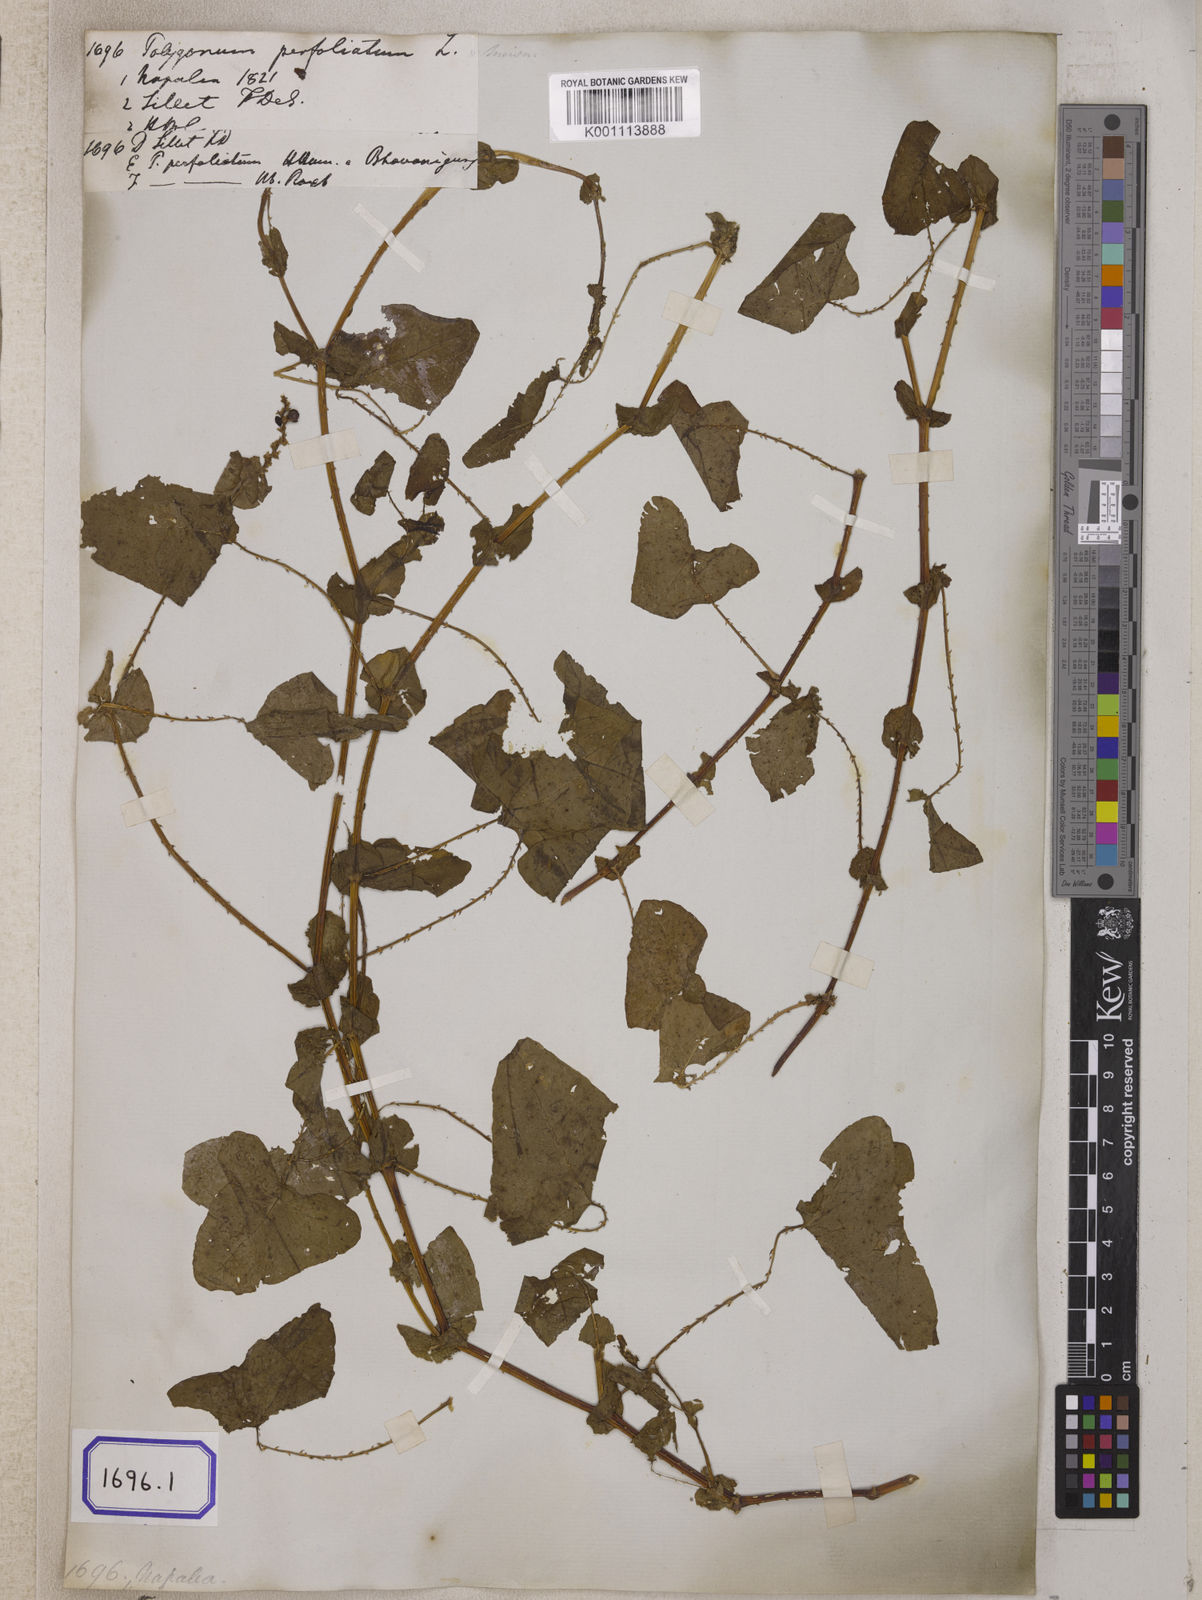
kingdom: Plantae
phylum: Tracheophyta
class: Magnoliopsida
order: Caryophyllales
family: Polygonaceae
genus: Persicaria
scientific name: Persicaria perfoliata
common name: Asiatic tearthumb
